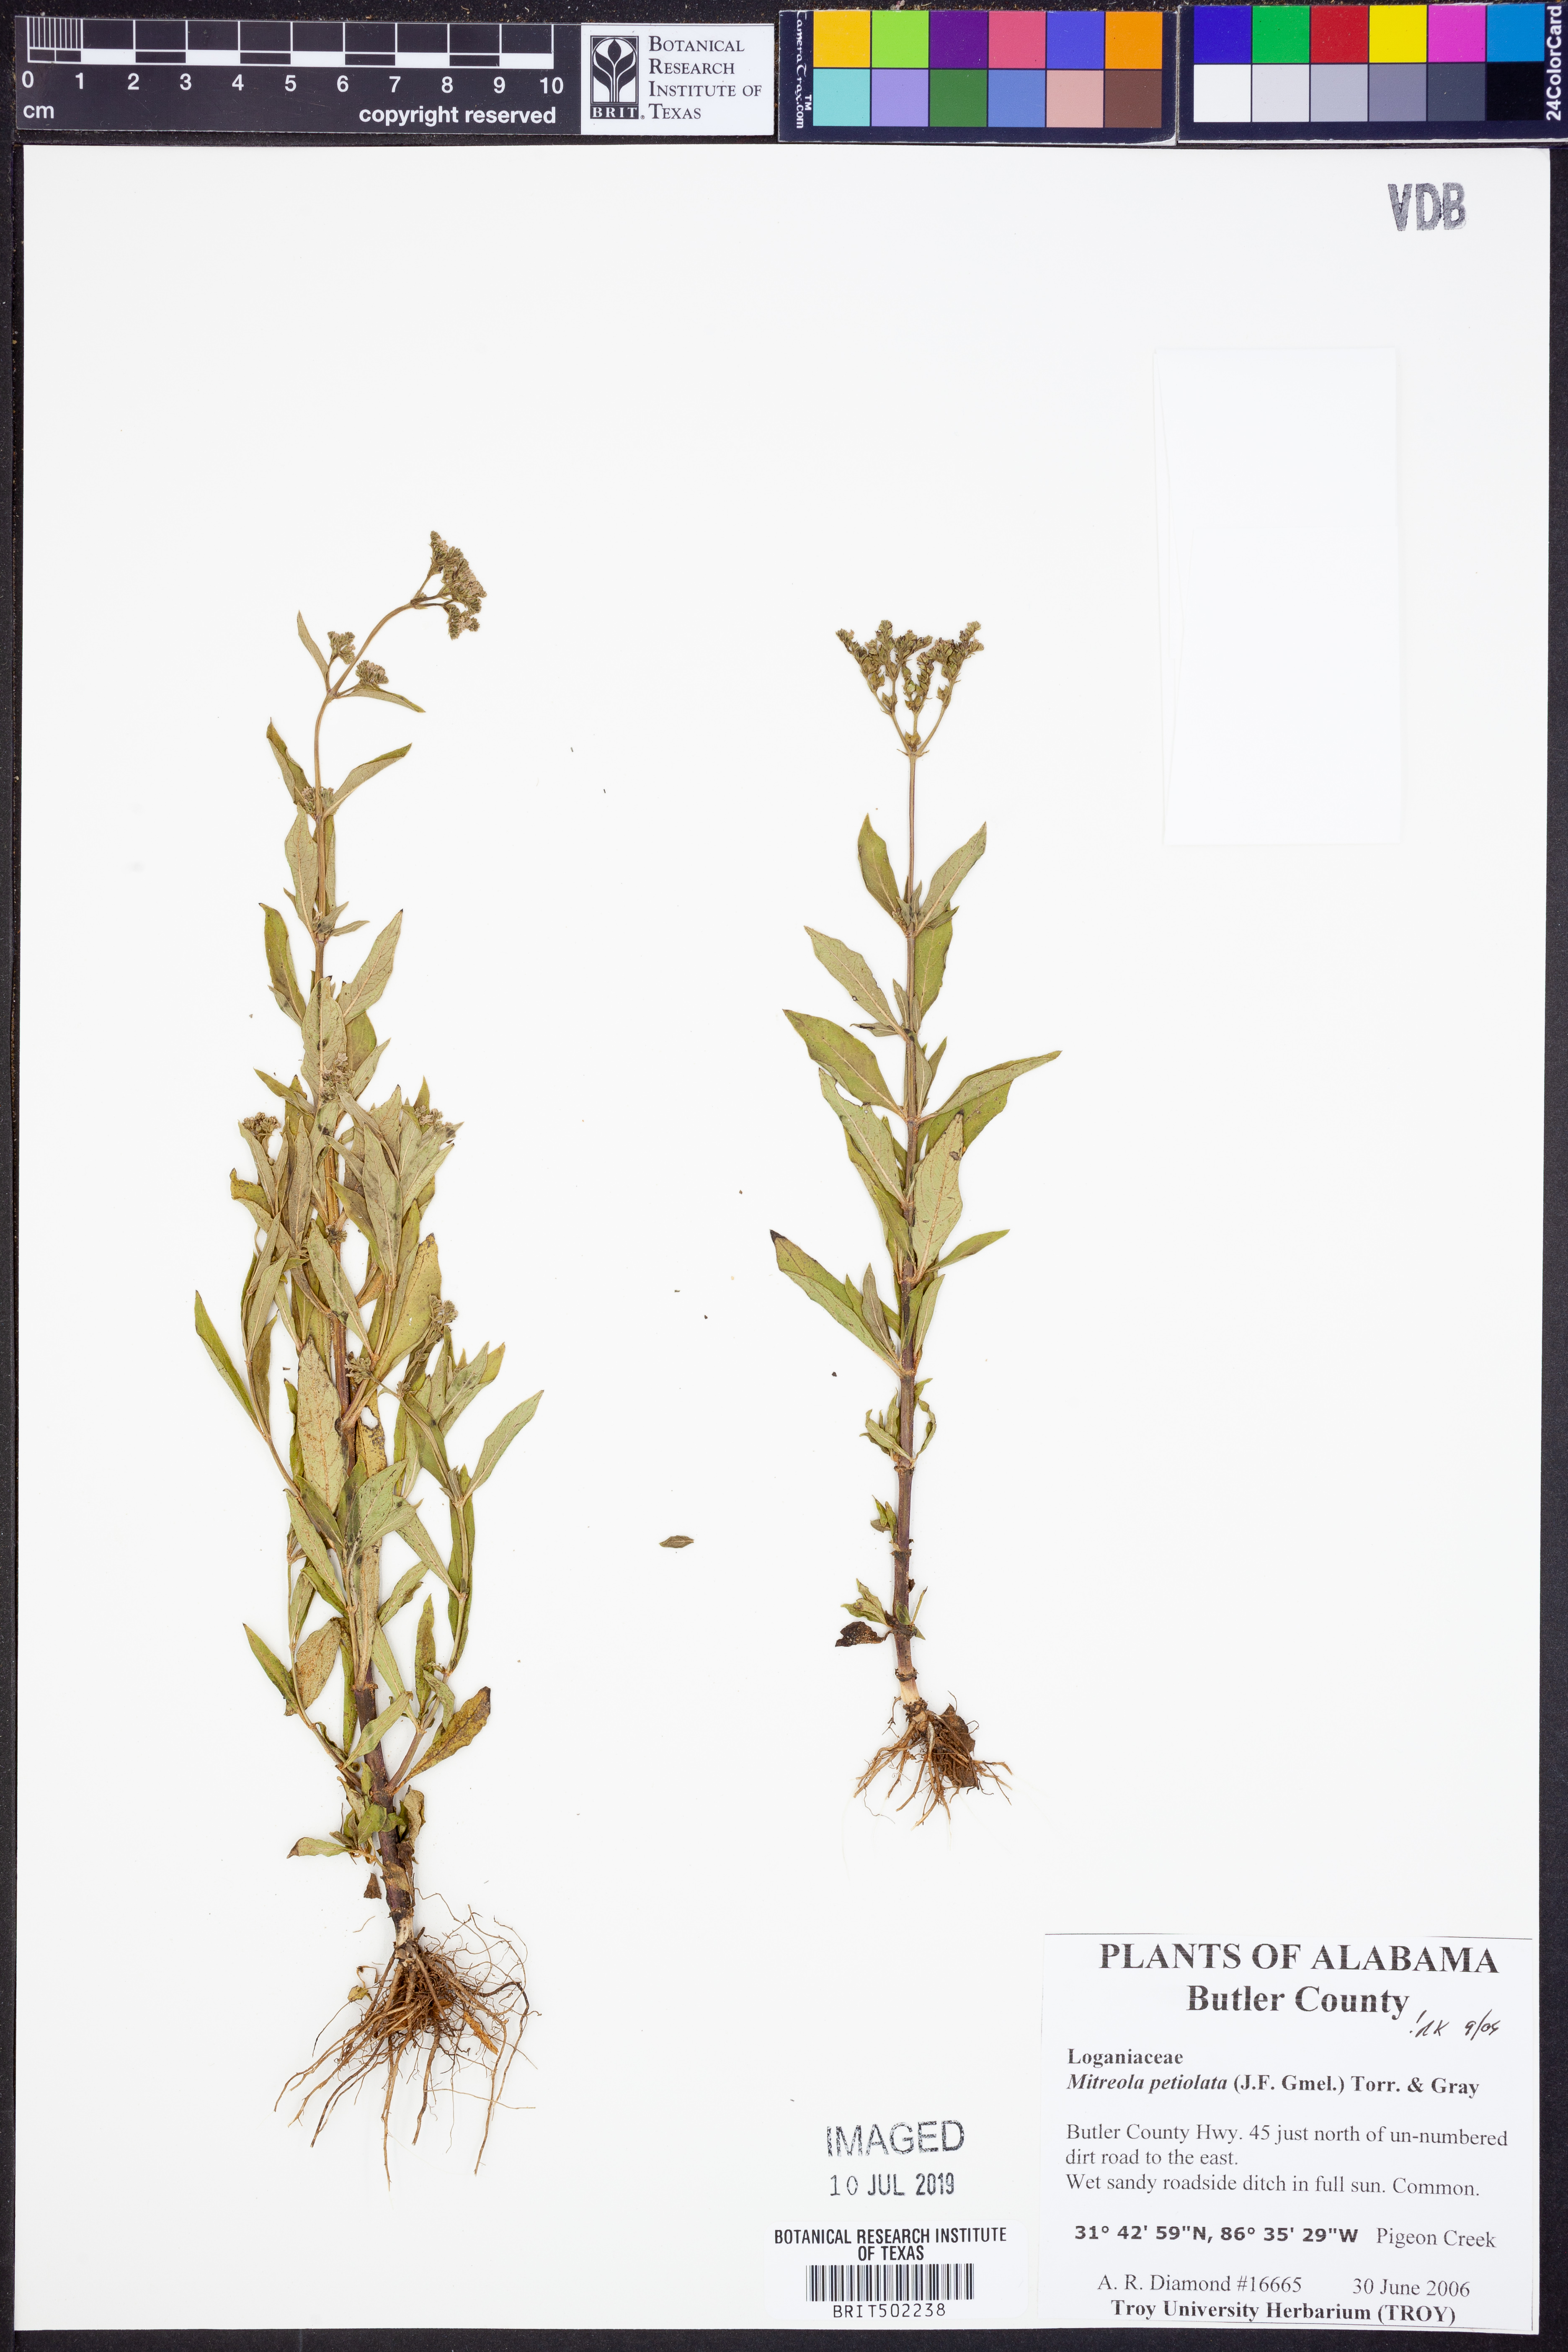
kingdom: Plantae
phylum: Tracheophyta
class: Magnoliopsida
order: Gentianales
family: Loganiaceae
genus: Mitreola
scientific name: Mitreola petiolata
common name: Lax hornpod
